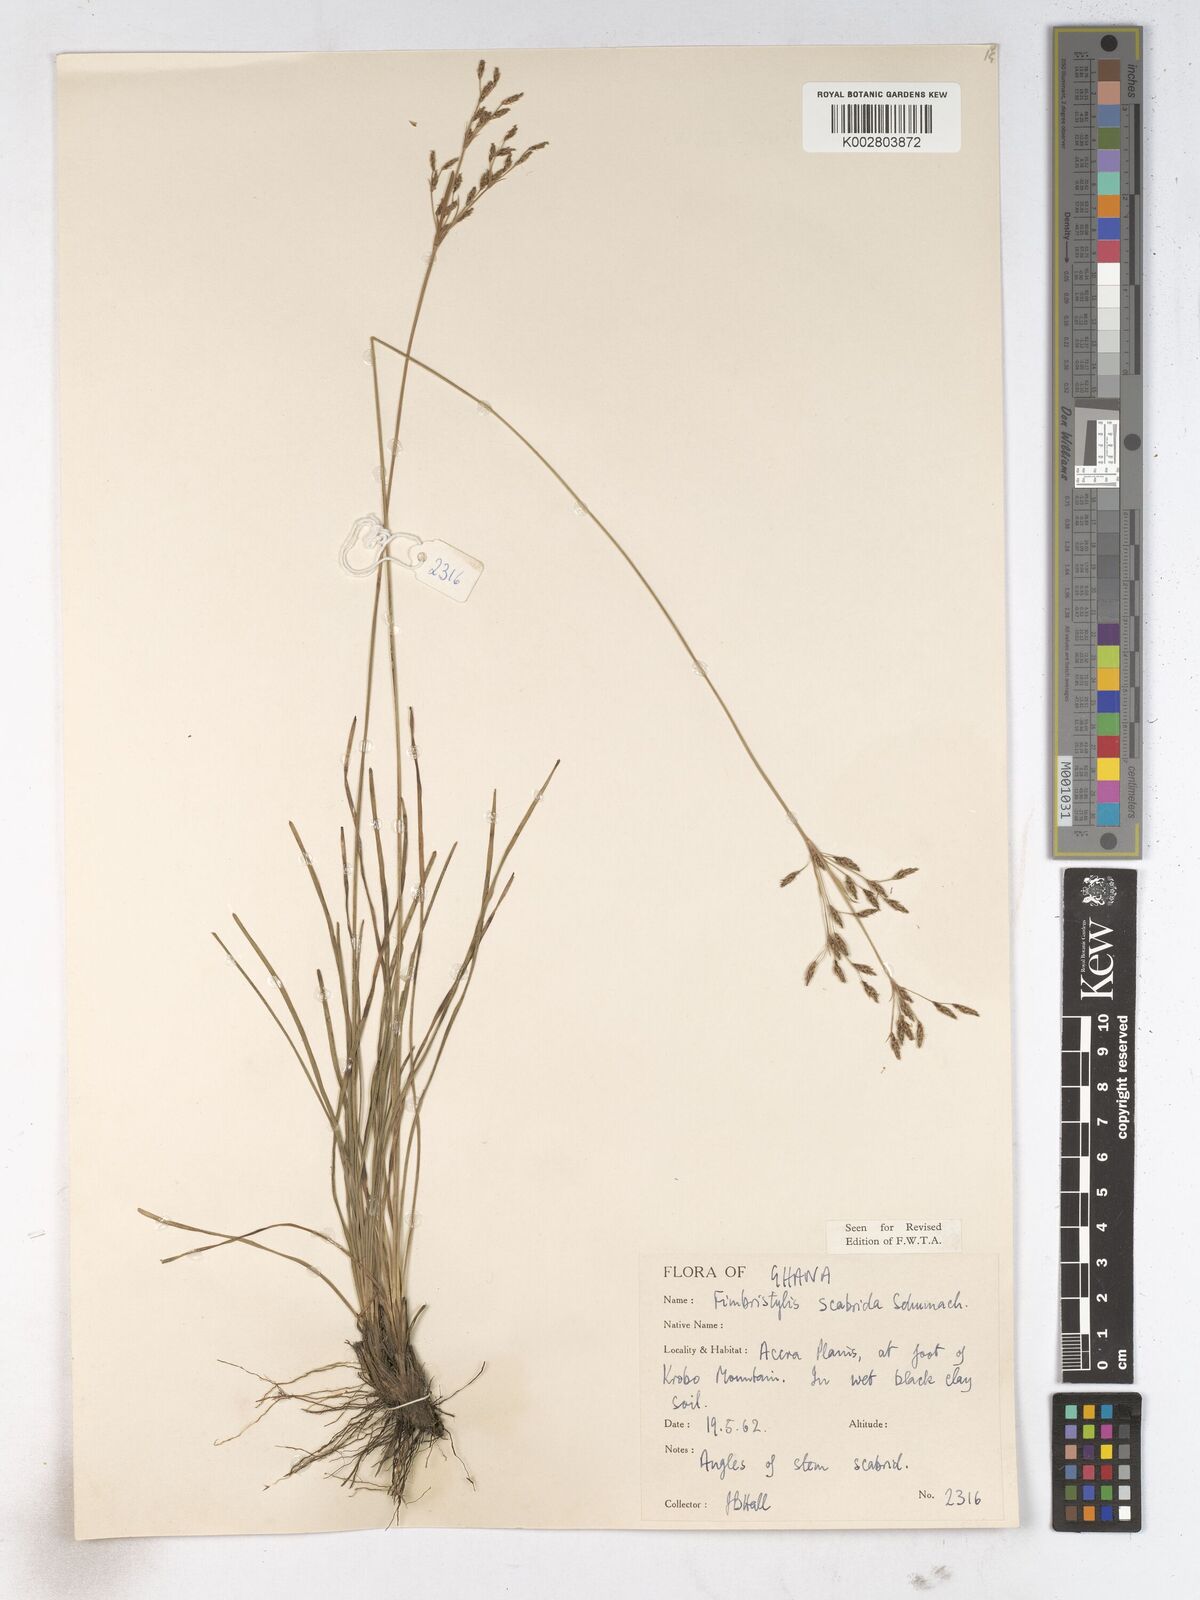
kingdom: Plantae
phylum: Tracheophyta
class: Liliopsida
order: Poales
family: Cyperaceae
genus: Fimbristylis
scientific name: Fimbristylis scabrida
